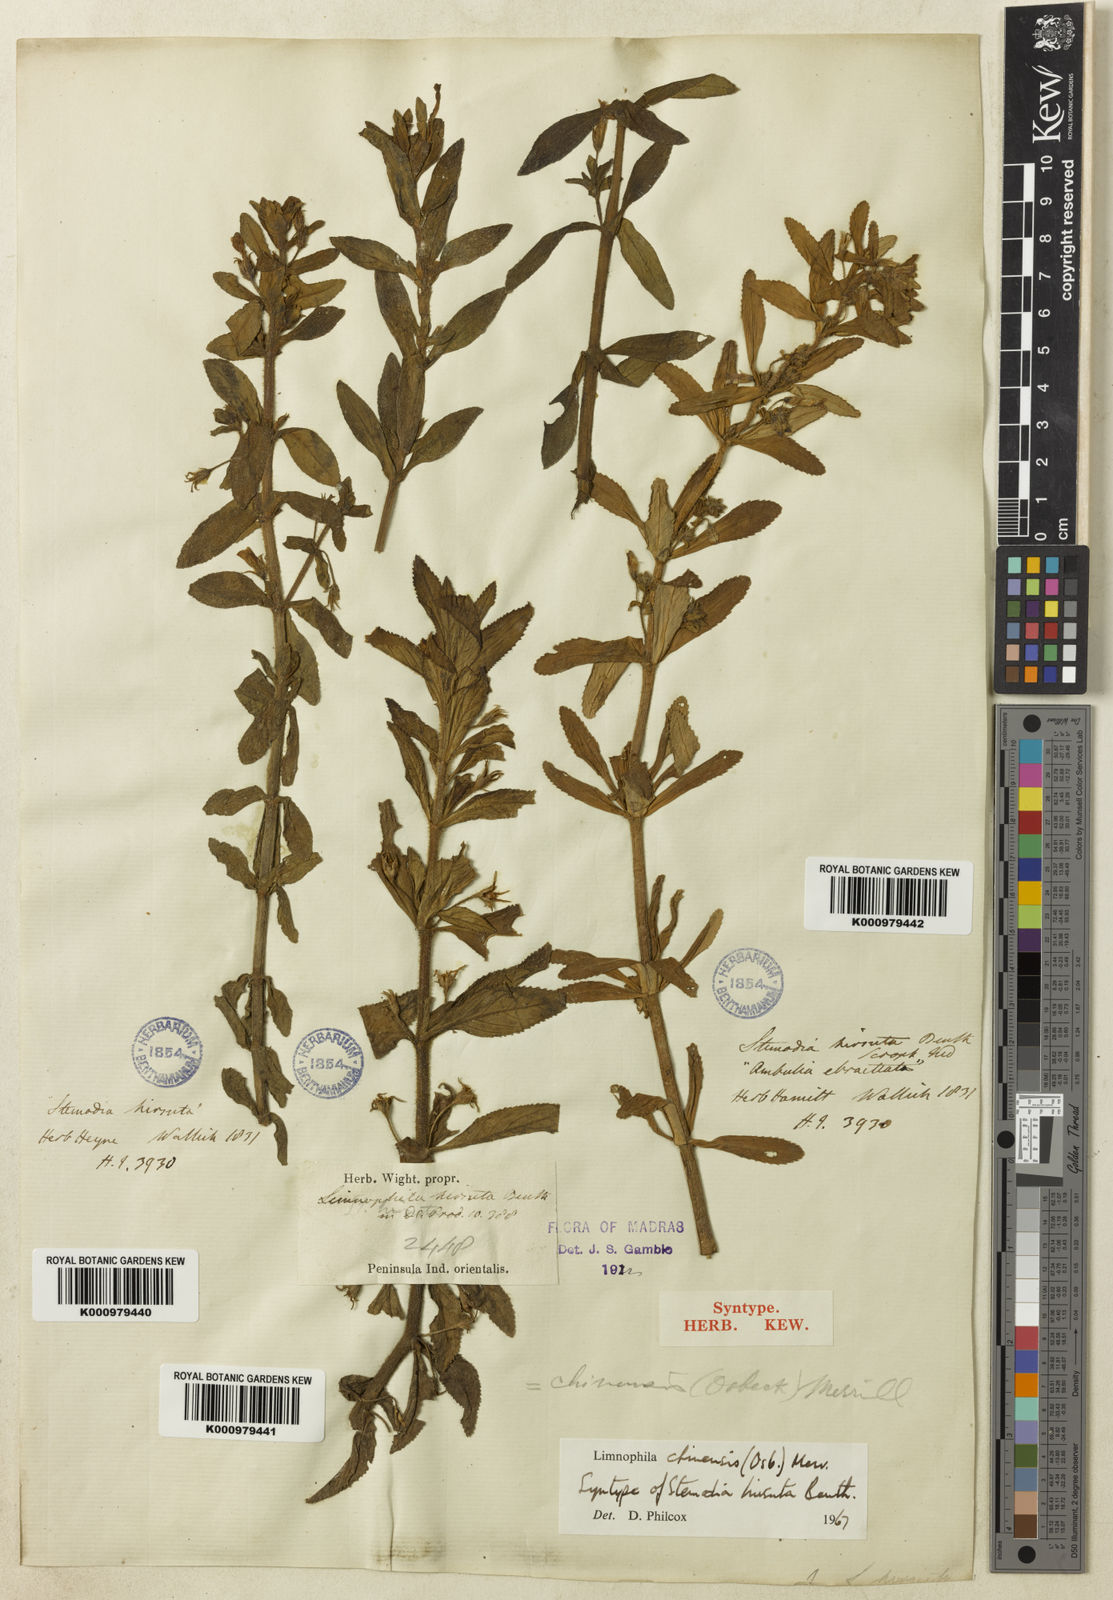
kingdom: Plantae
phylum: Tracheophyta
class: Magnoliopsida
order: Lamiales
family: Plantaginaceae
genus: Limnophila
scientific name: Limnophila chinensis
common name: Finger grass
